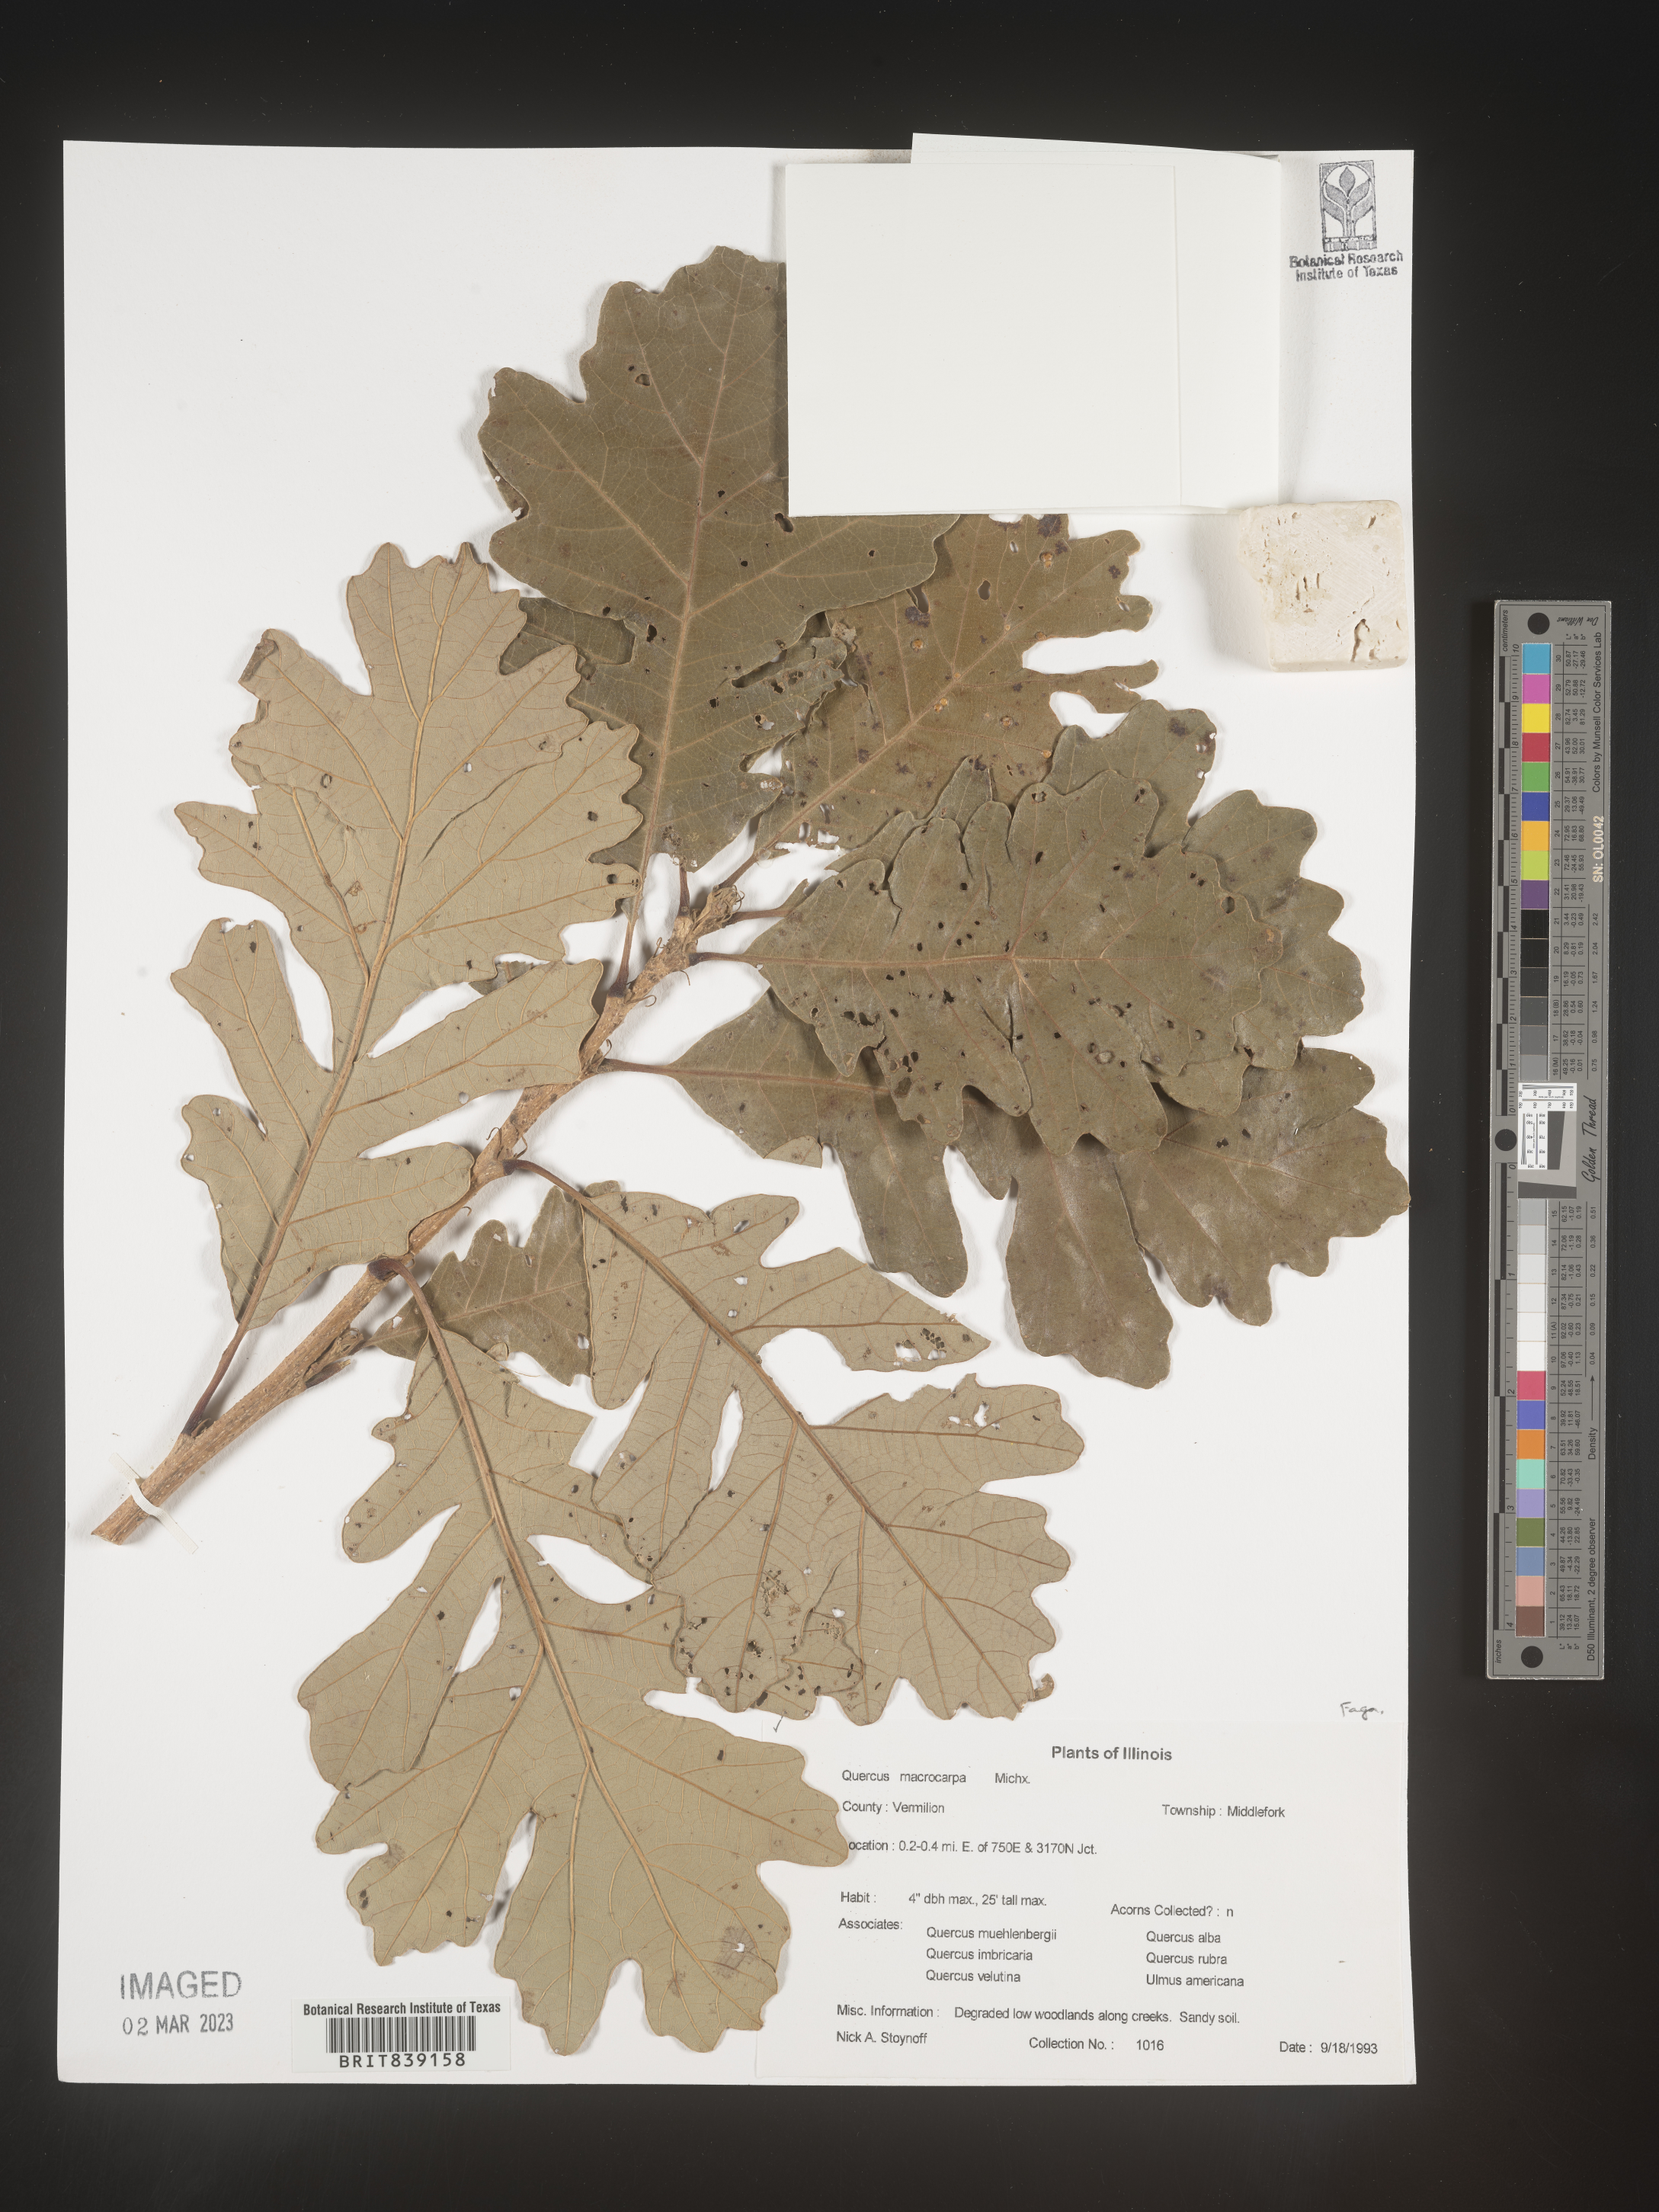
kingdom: Plantae
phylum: Tracheophyta
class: Magnoliopsida
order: Fagales
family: Fagaceae
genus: Quercus
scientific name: Quercus macrocarpa
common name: Bur oak
